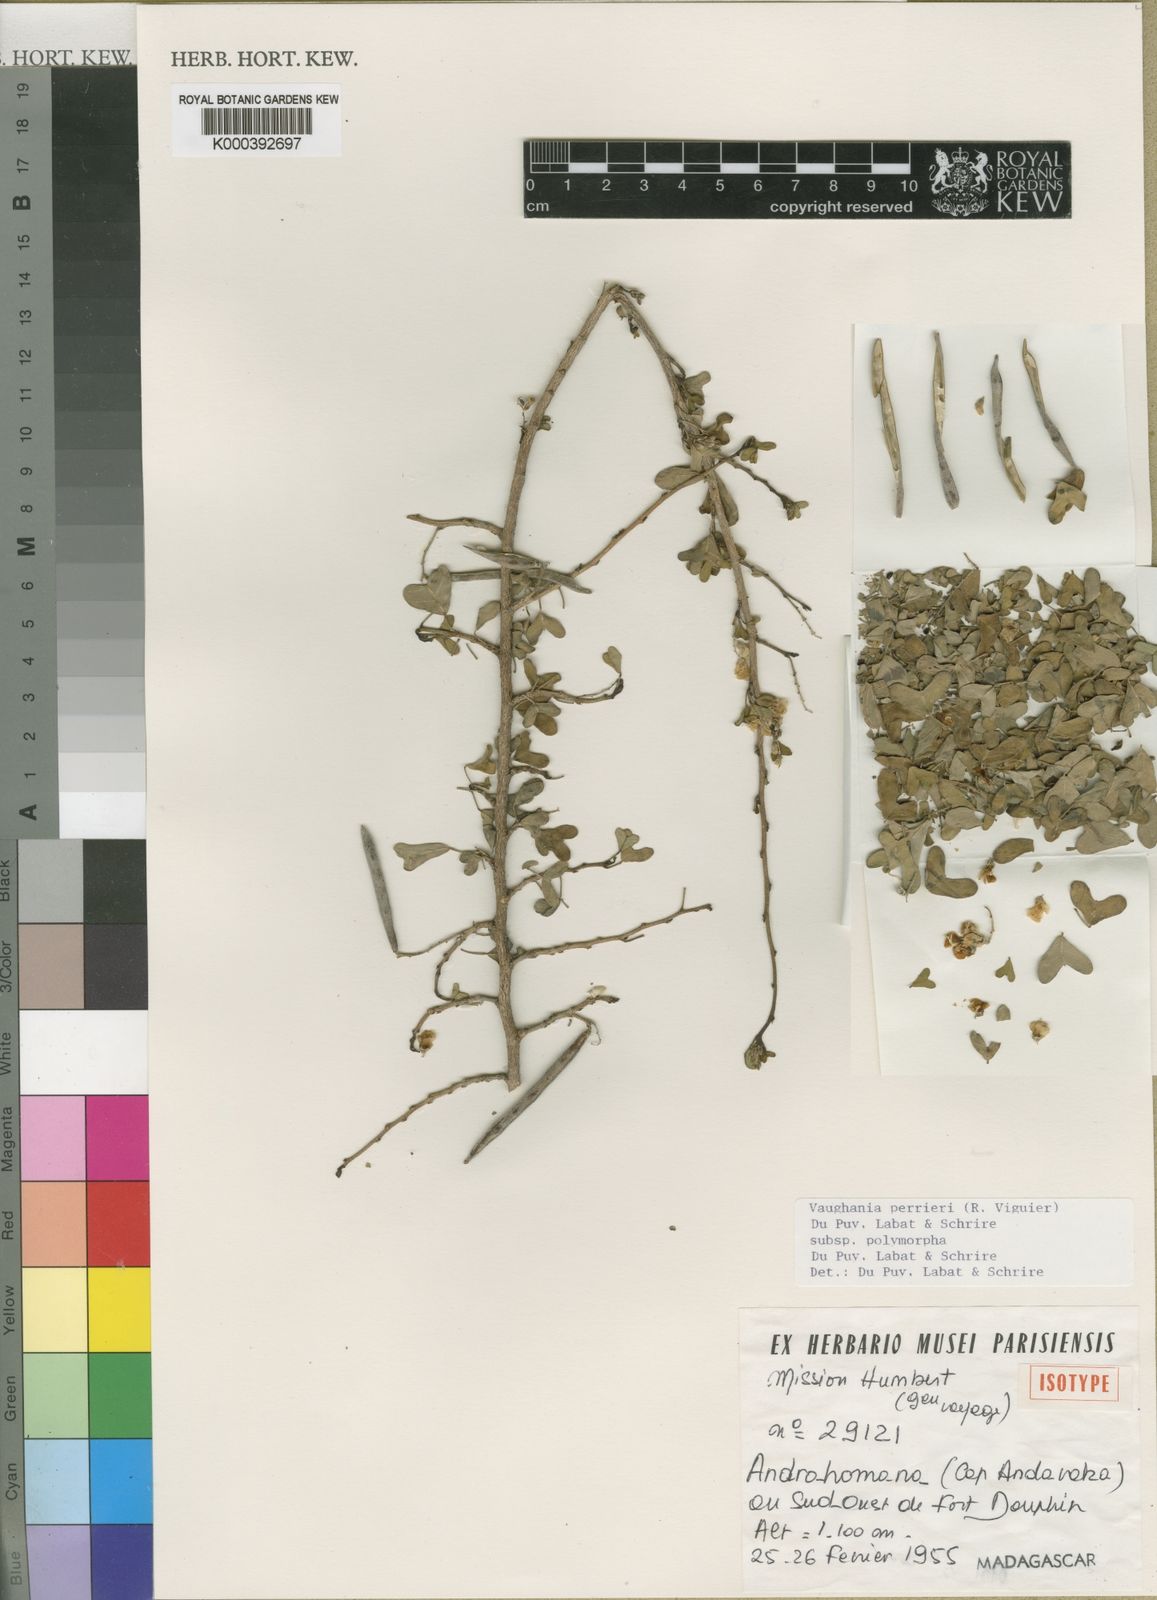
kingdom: Animalia
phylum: Cnidaria
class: Anthozoa
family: Vaughaniidae
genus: Vaughania
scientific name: Vaughania
